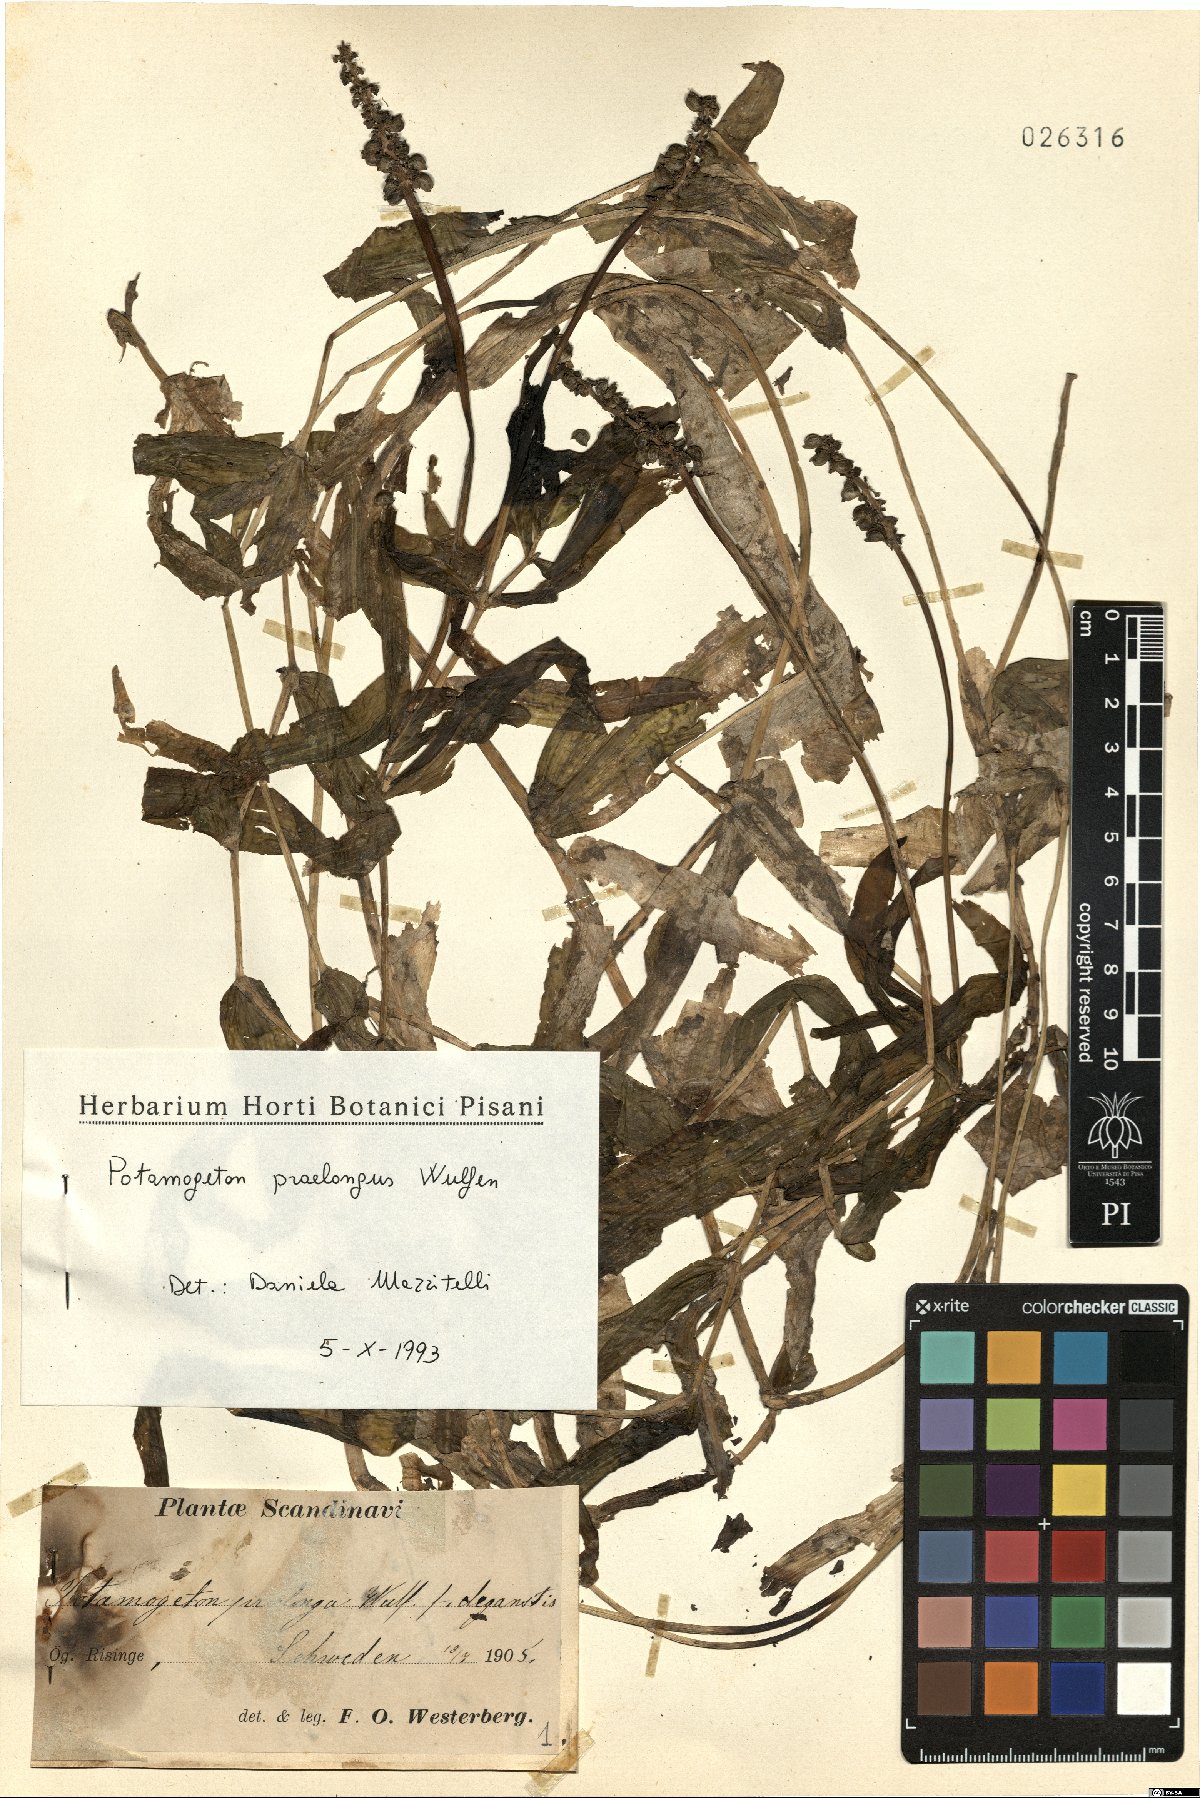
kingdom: Plantae
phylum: Tracheophyta
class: Liliopsida
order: Alismatales
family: Potamogetonaceae
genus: Potamogeton
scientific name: Potamogeton praelongus
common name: Long-stalked pondweed
